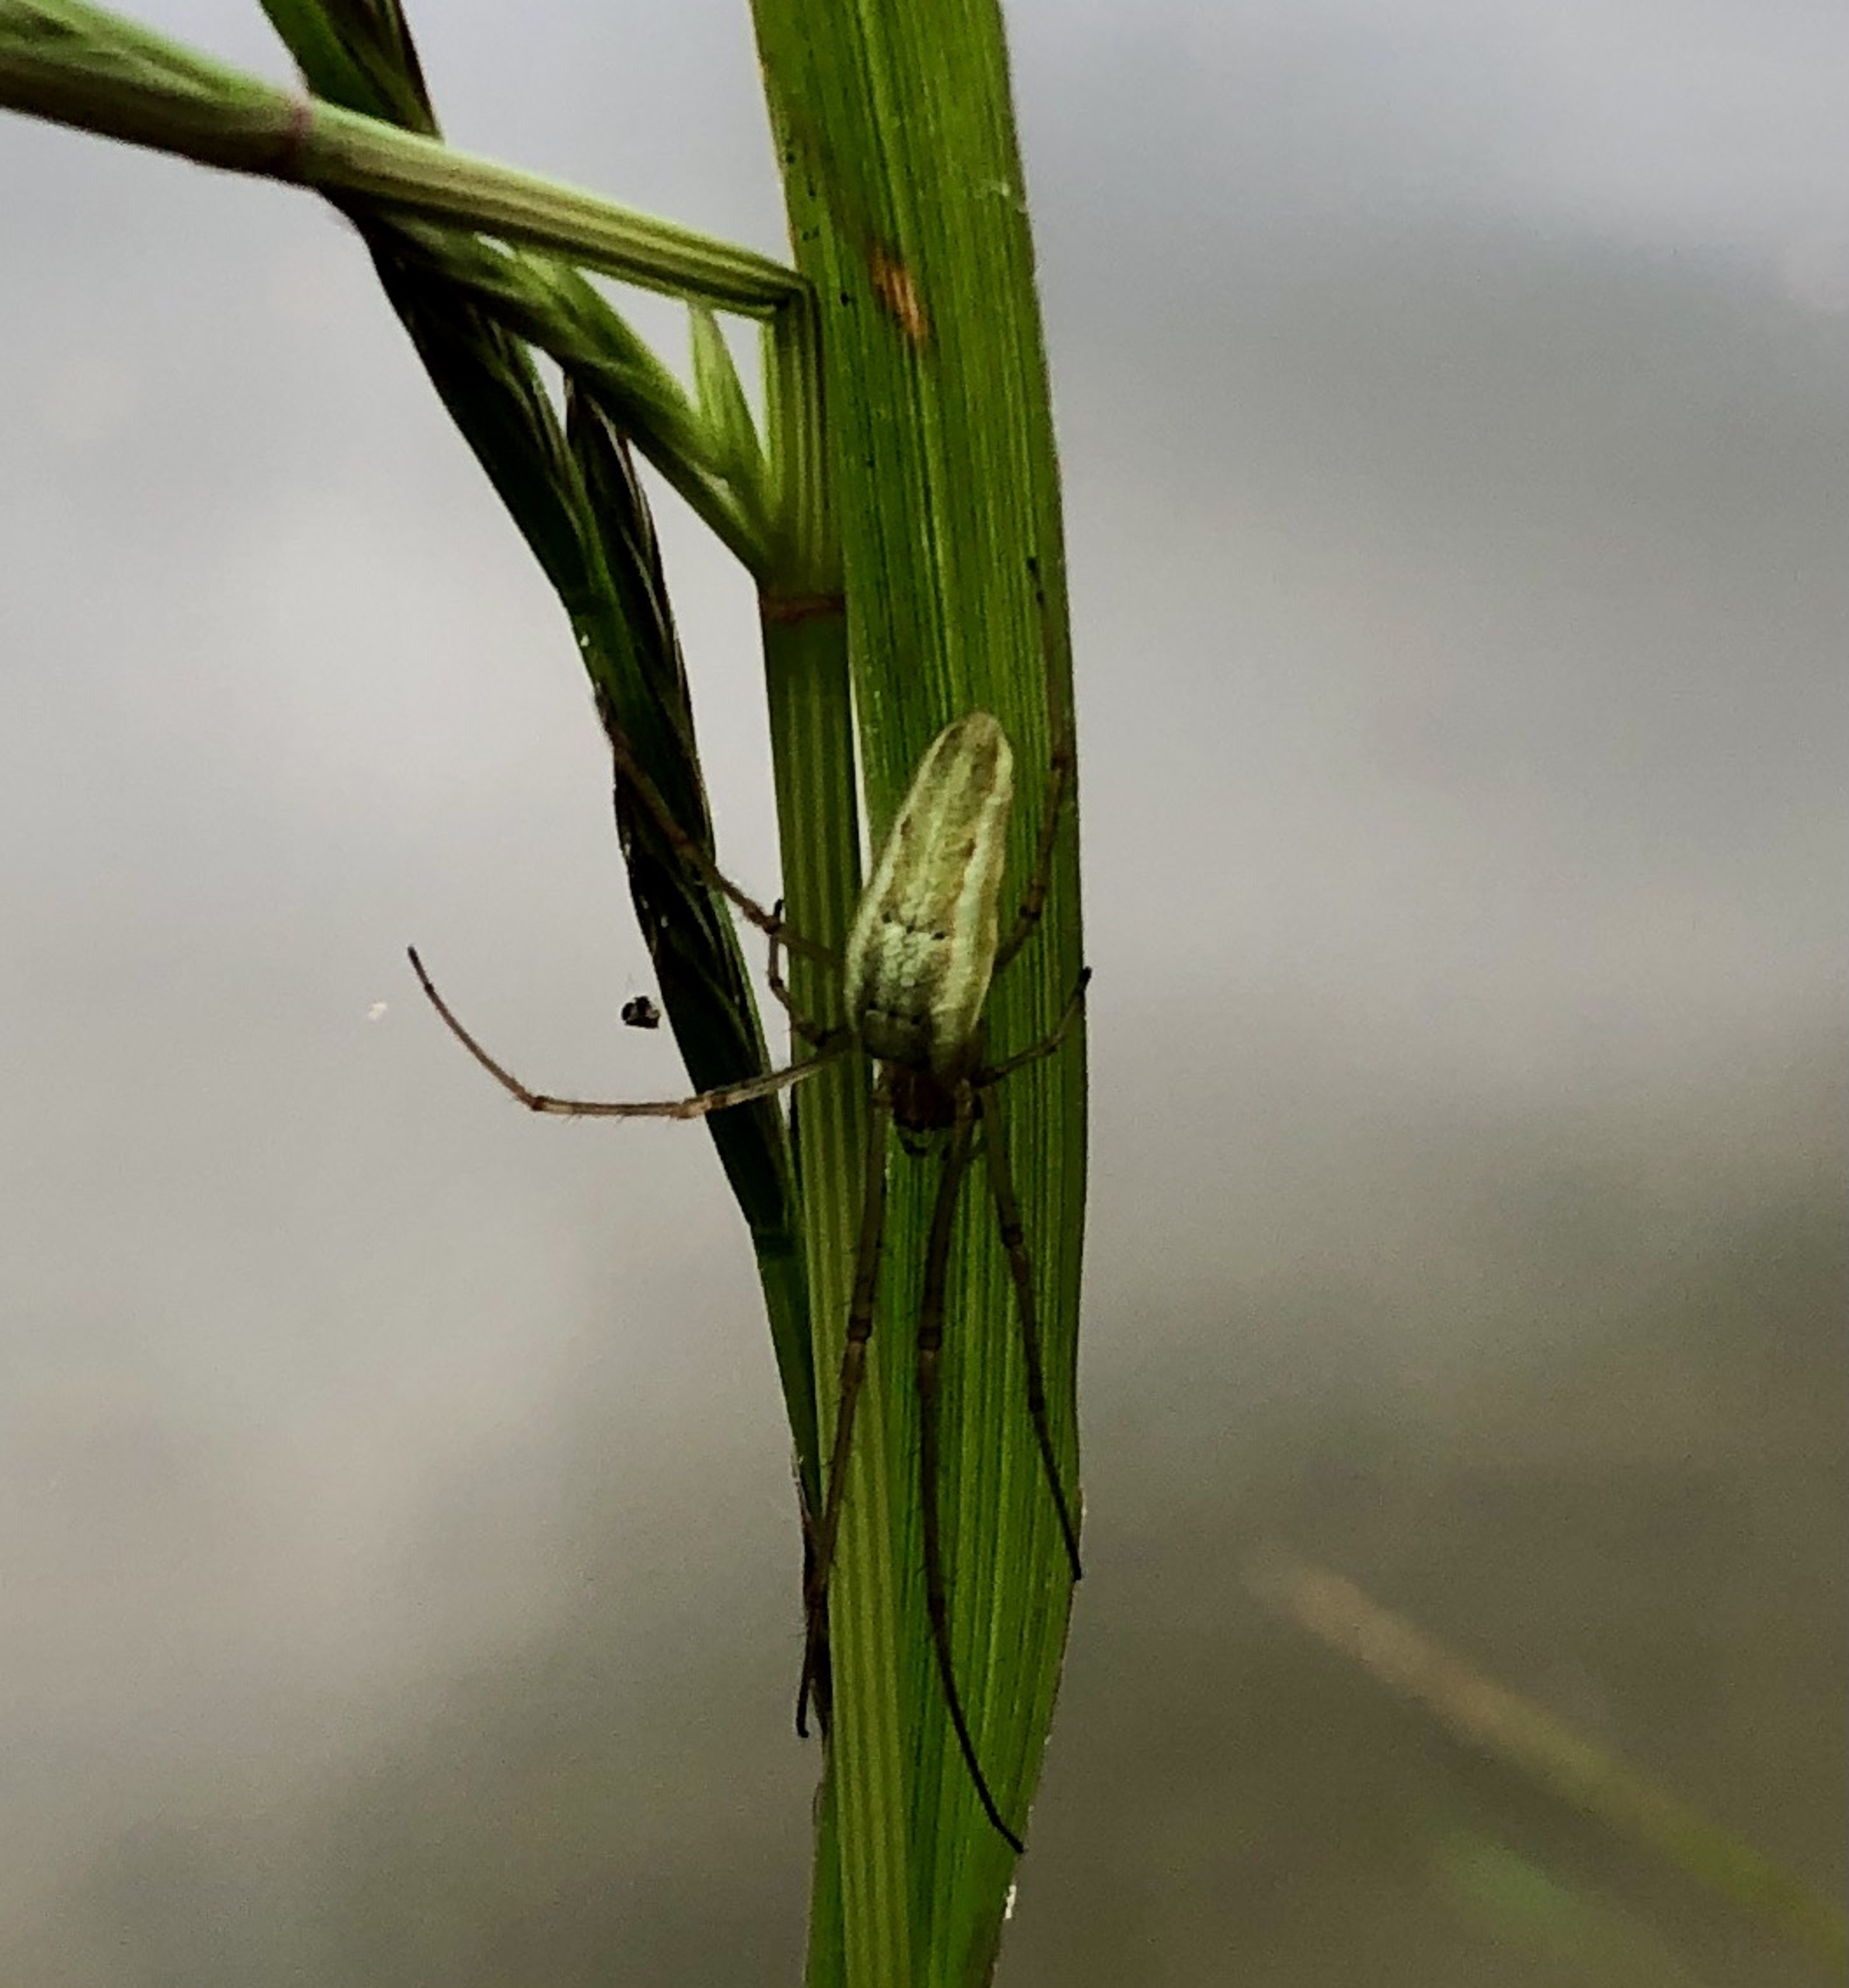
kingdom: Animalia
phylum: Arthropoda
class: Arachnida
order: Araneae
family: Tetragnathidae
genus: Tetragnatha
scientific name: Tetragnatha extensa
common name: Engstavedderkop
